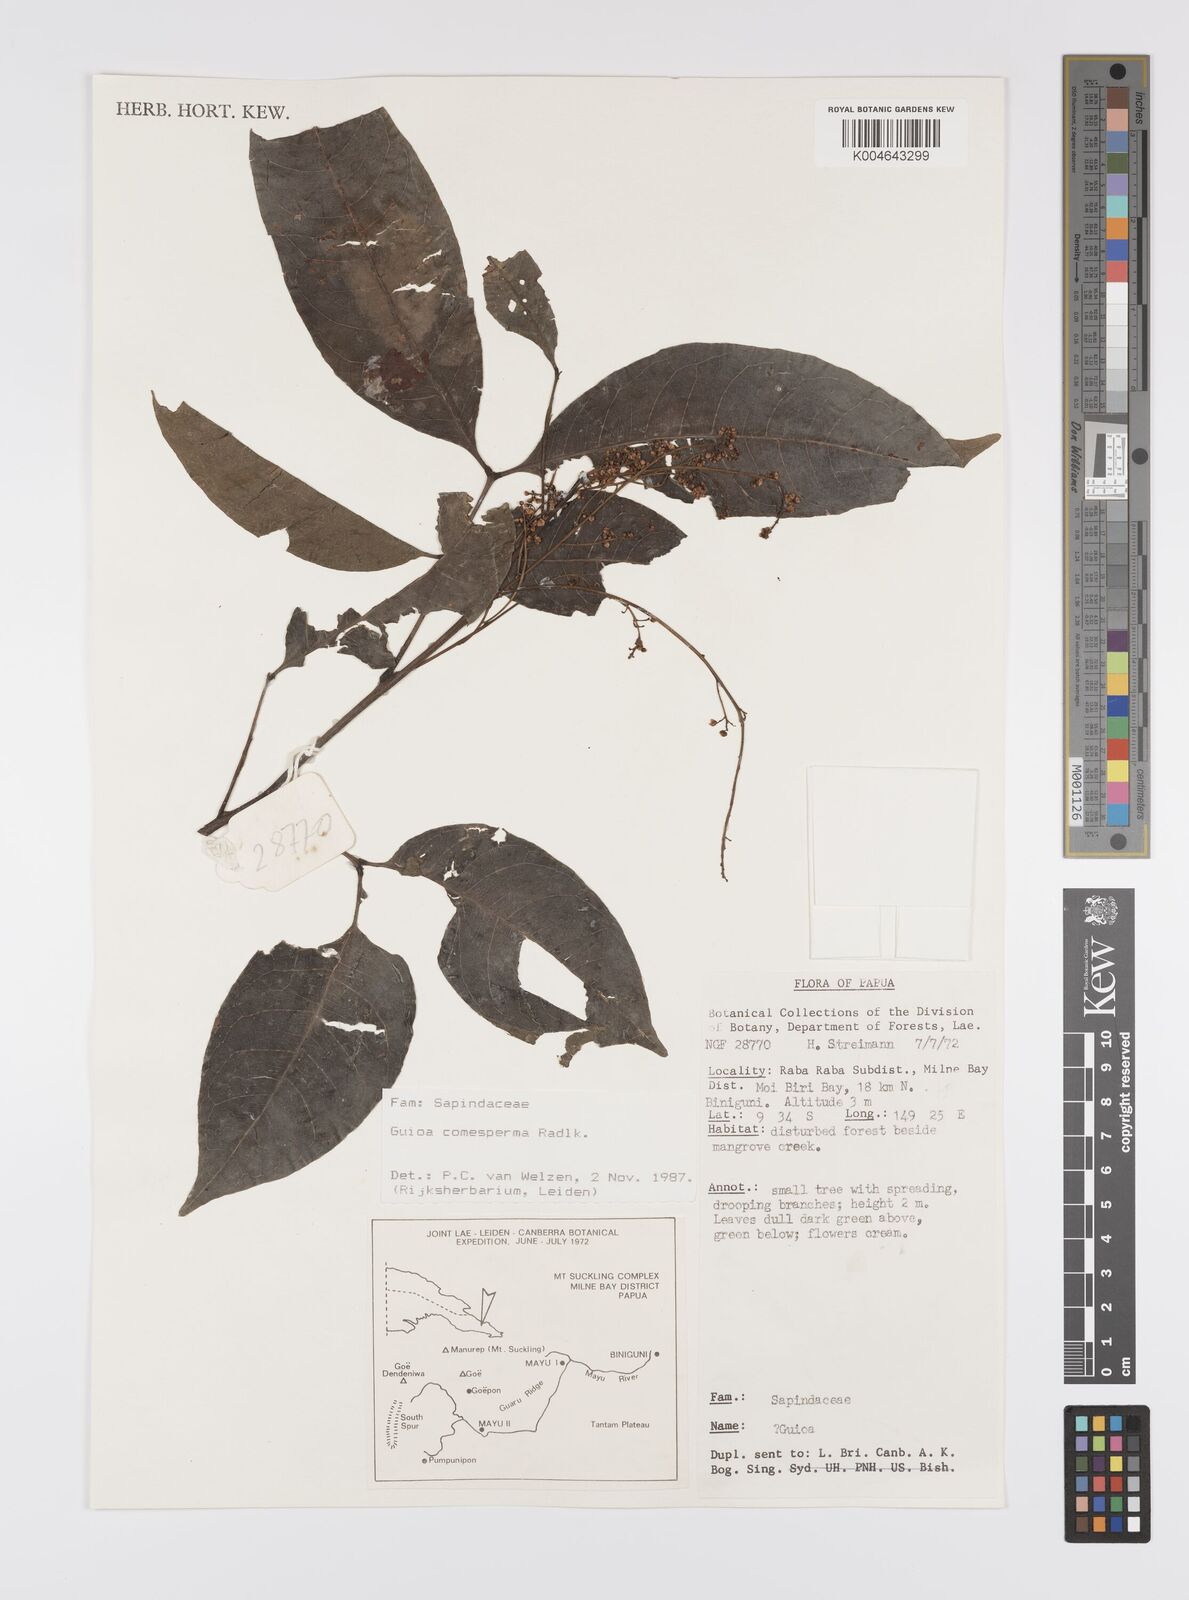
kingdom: Plantae
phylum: Tracheophyta
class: Magnoliopsida
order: Sapindales
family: Sapindaceae
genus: Guioa
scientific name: Guioa comesperma
